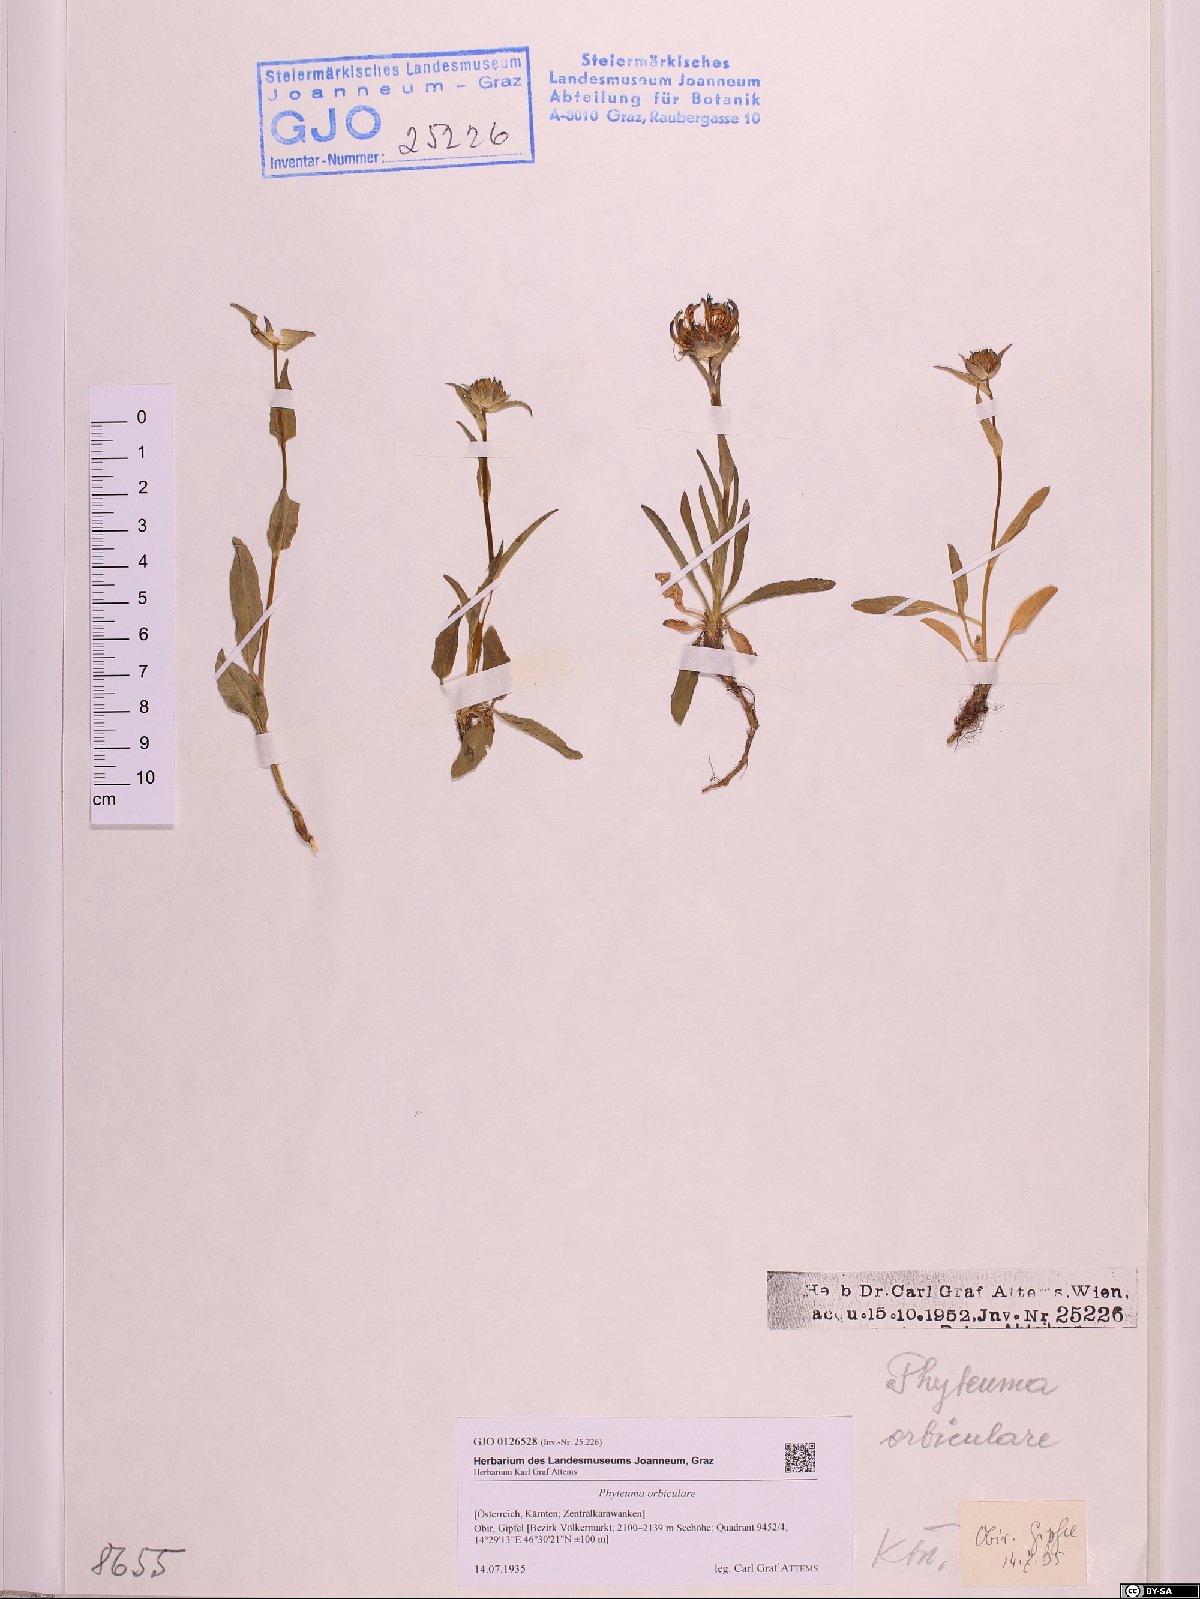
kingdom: Plantae
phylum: Tracheophyta
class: Magnoliopsida
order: Asterales
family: Campanulaceae
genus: Phyteuma
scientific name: Phyteuma orbiculare
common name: Round-headed rampion
